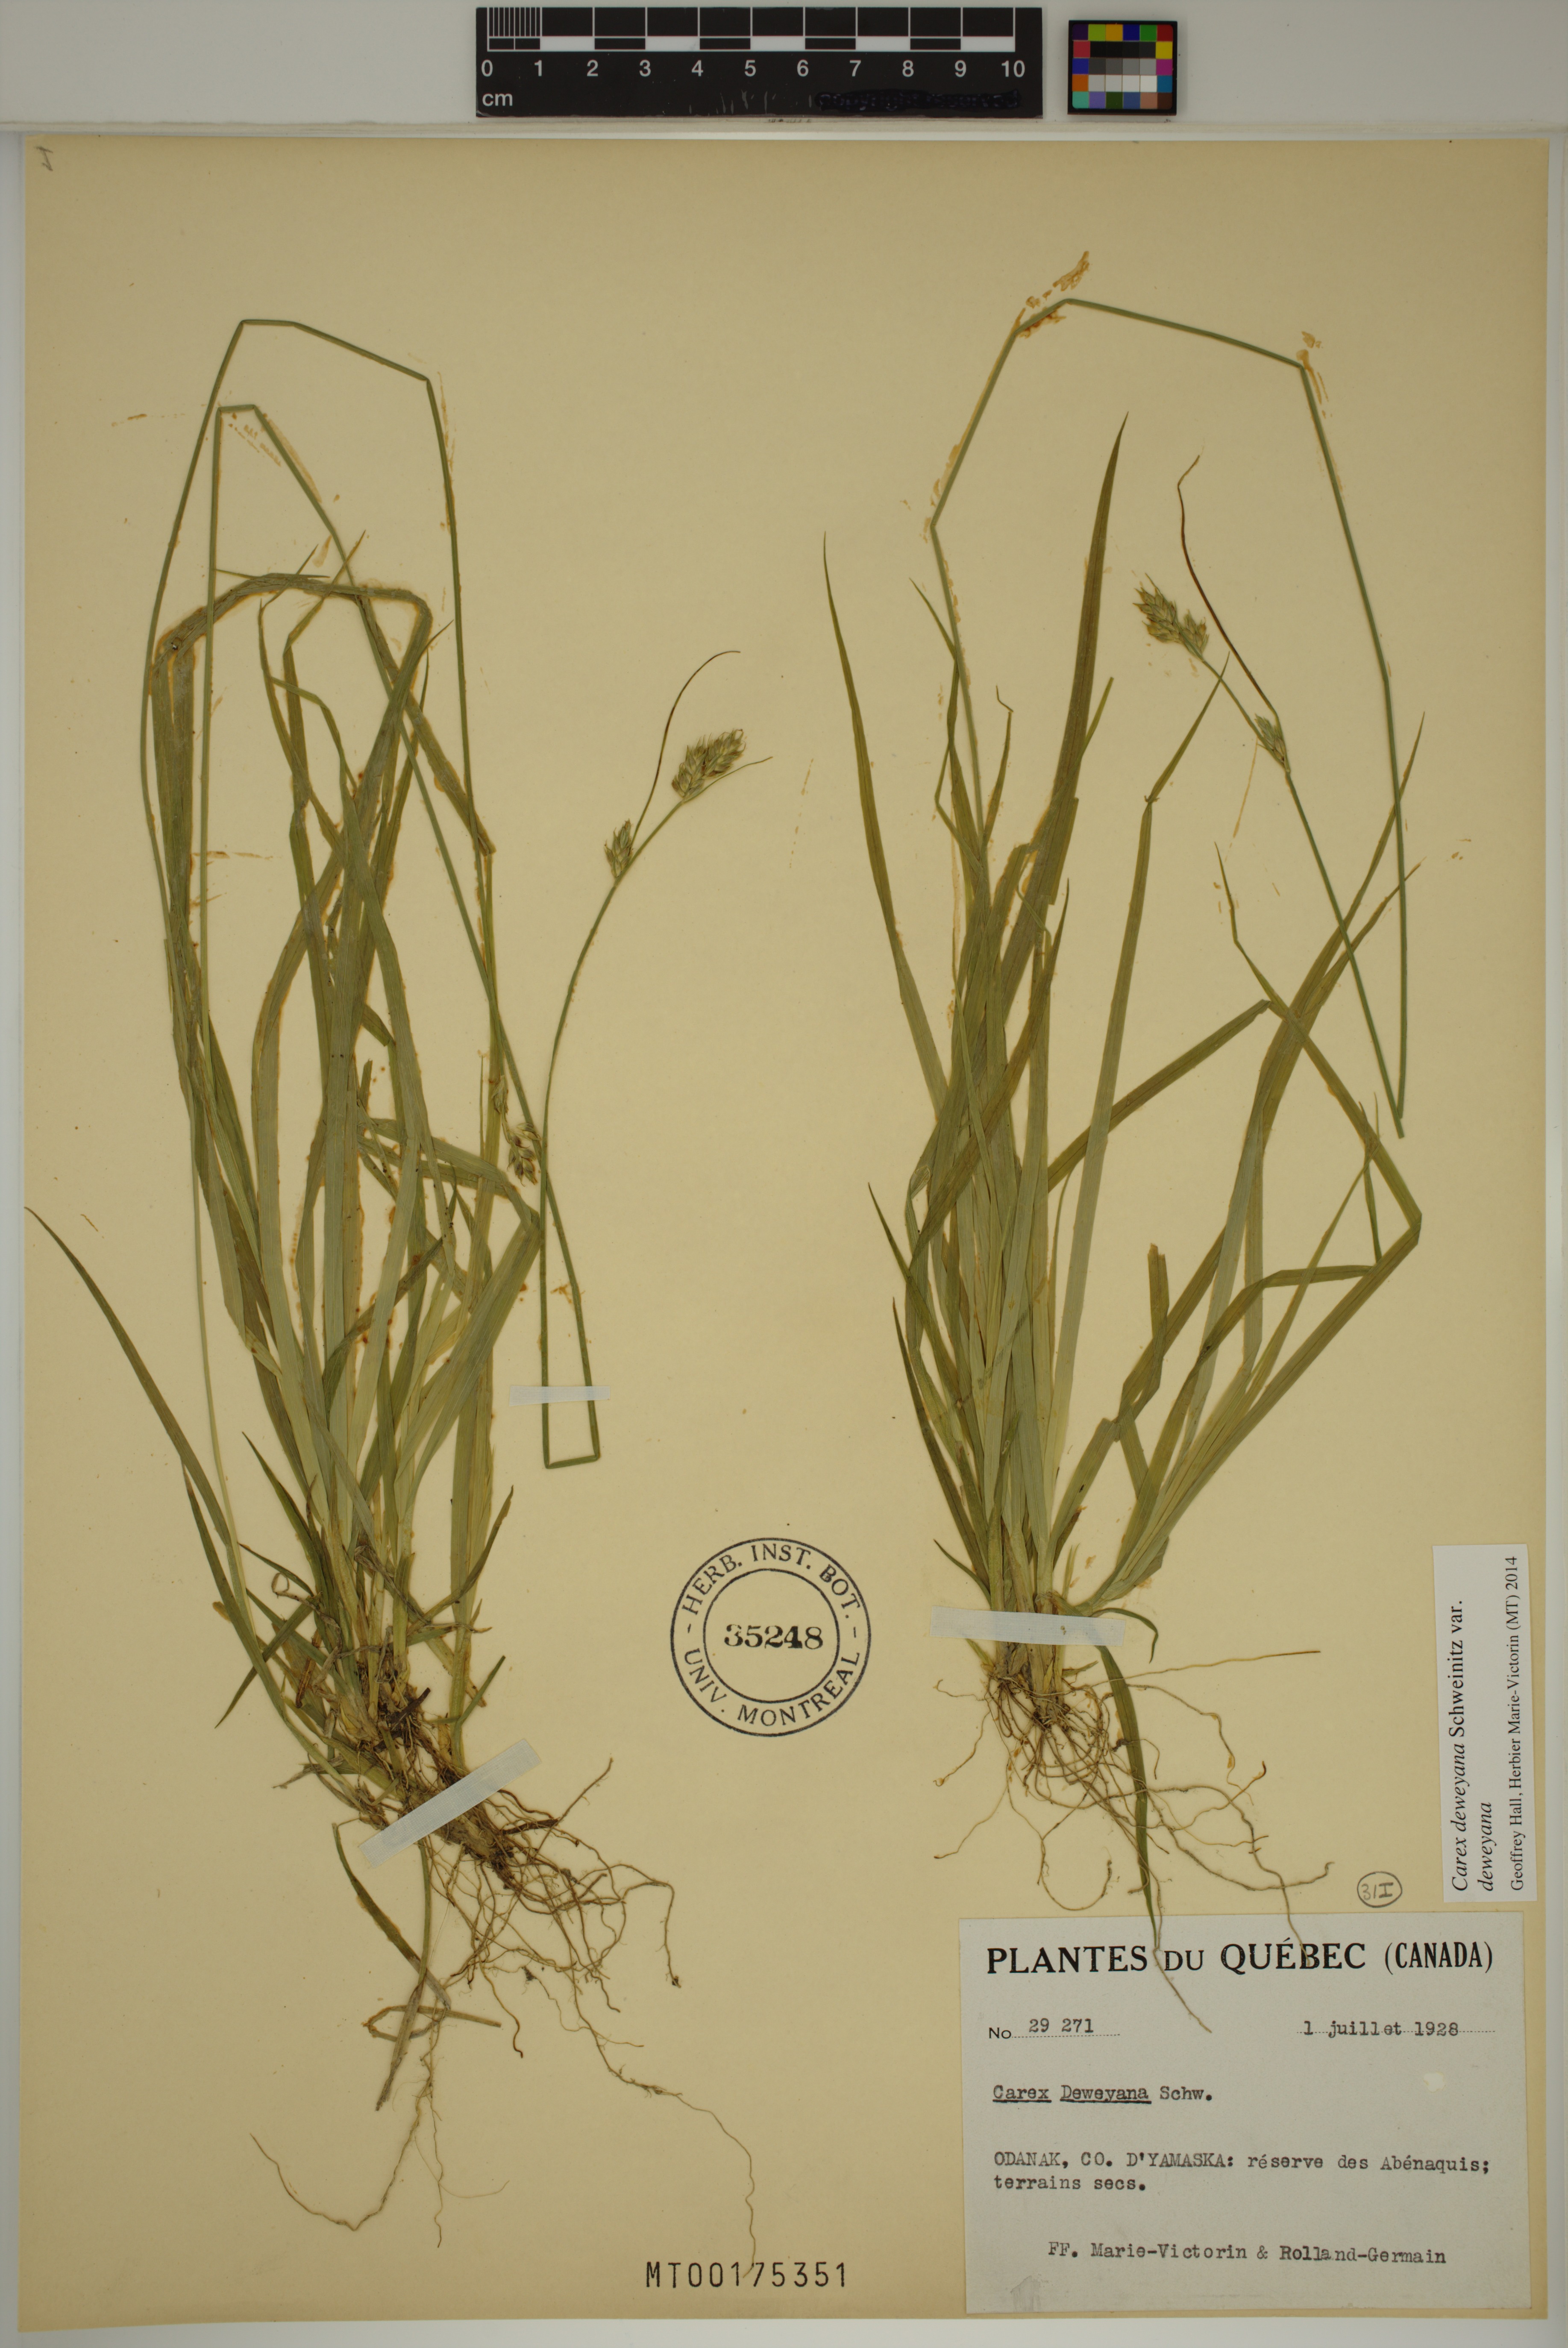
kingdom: Plantae
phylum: Tracheophyta
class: Liliopsida
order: Poales
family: Cyperaceae
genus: Carex
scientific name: Carex deweyana
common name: Dewey's sedge
